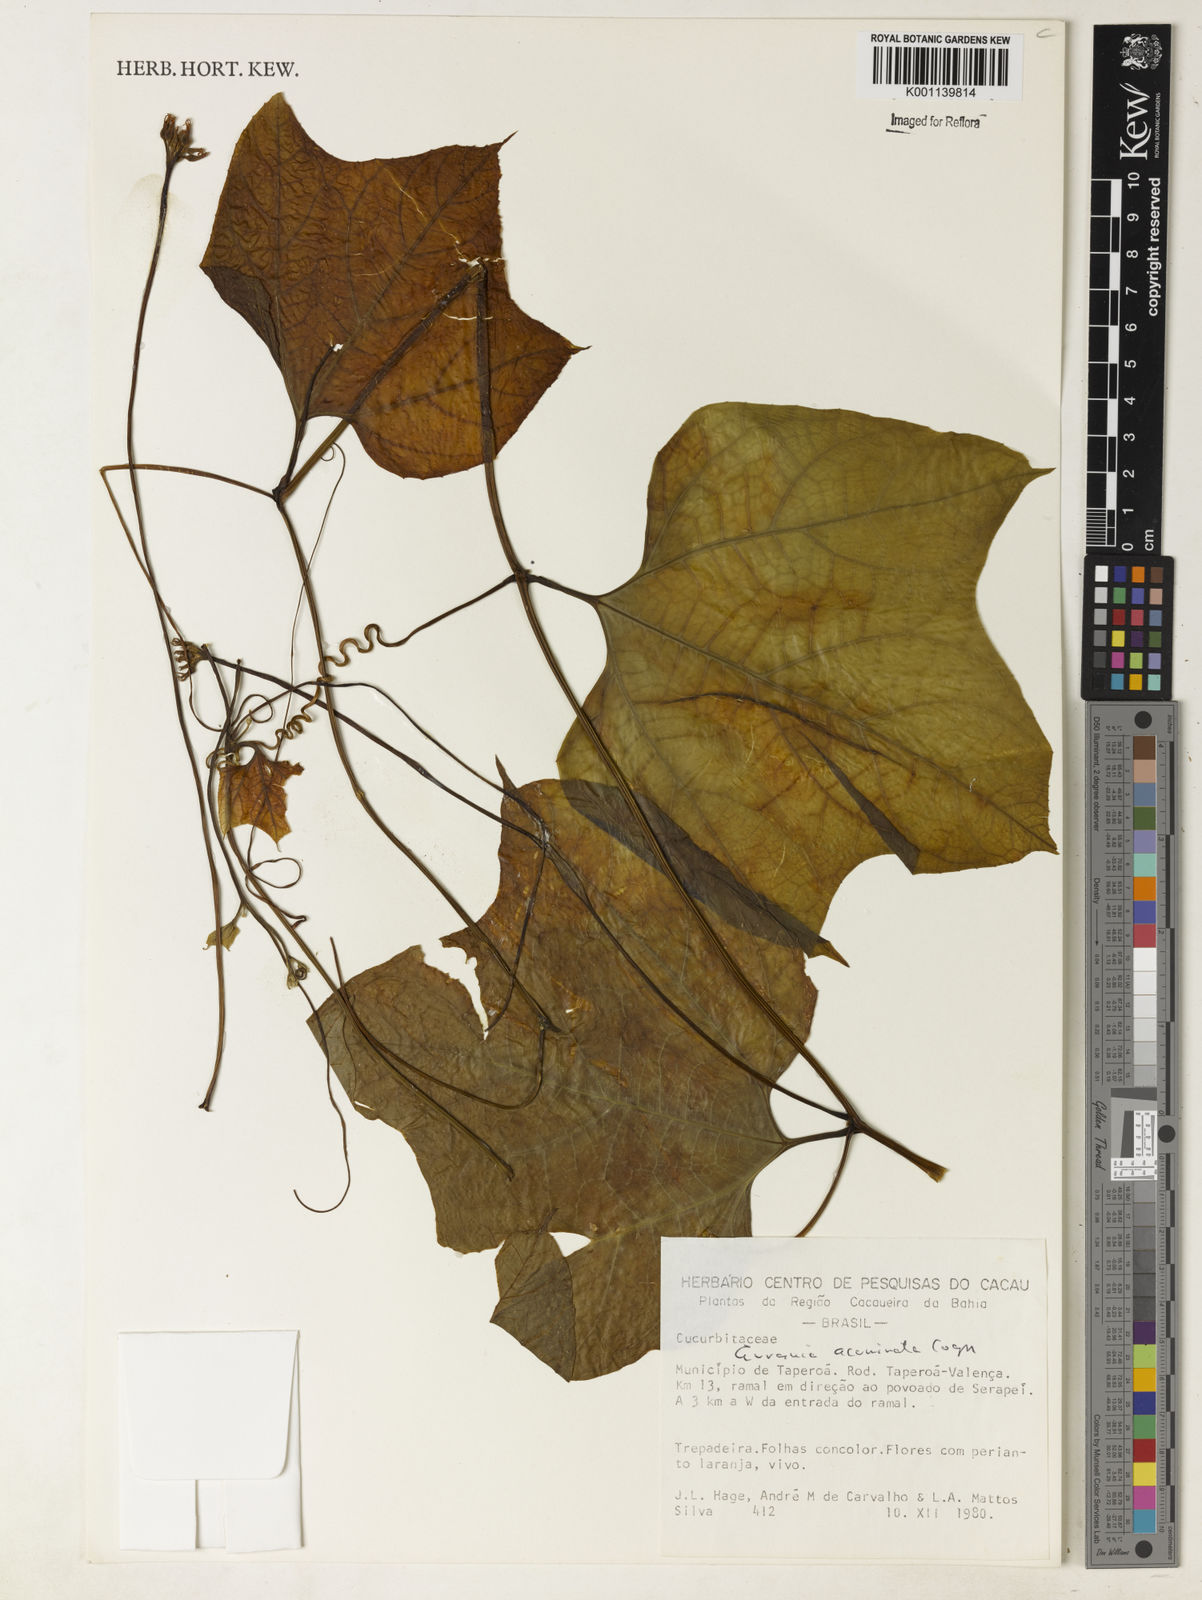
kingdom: Plantae
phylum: Tracheophyta
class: Magnoliopsida
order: Cucurbitales
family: Cucurbitaceae
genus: Gurania
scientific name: Gurania acuminata
